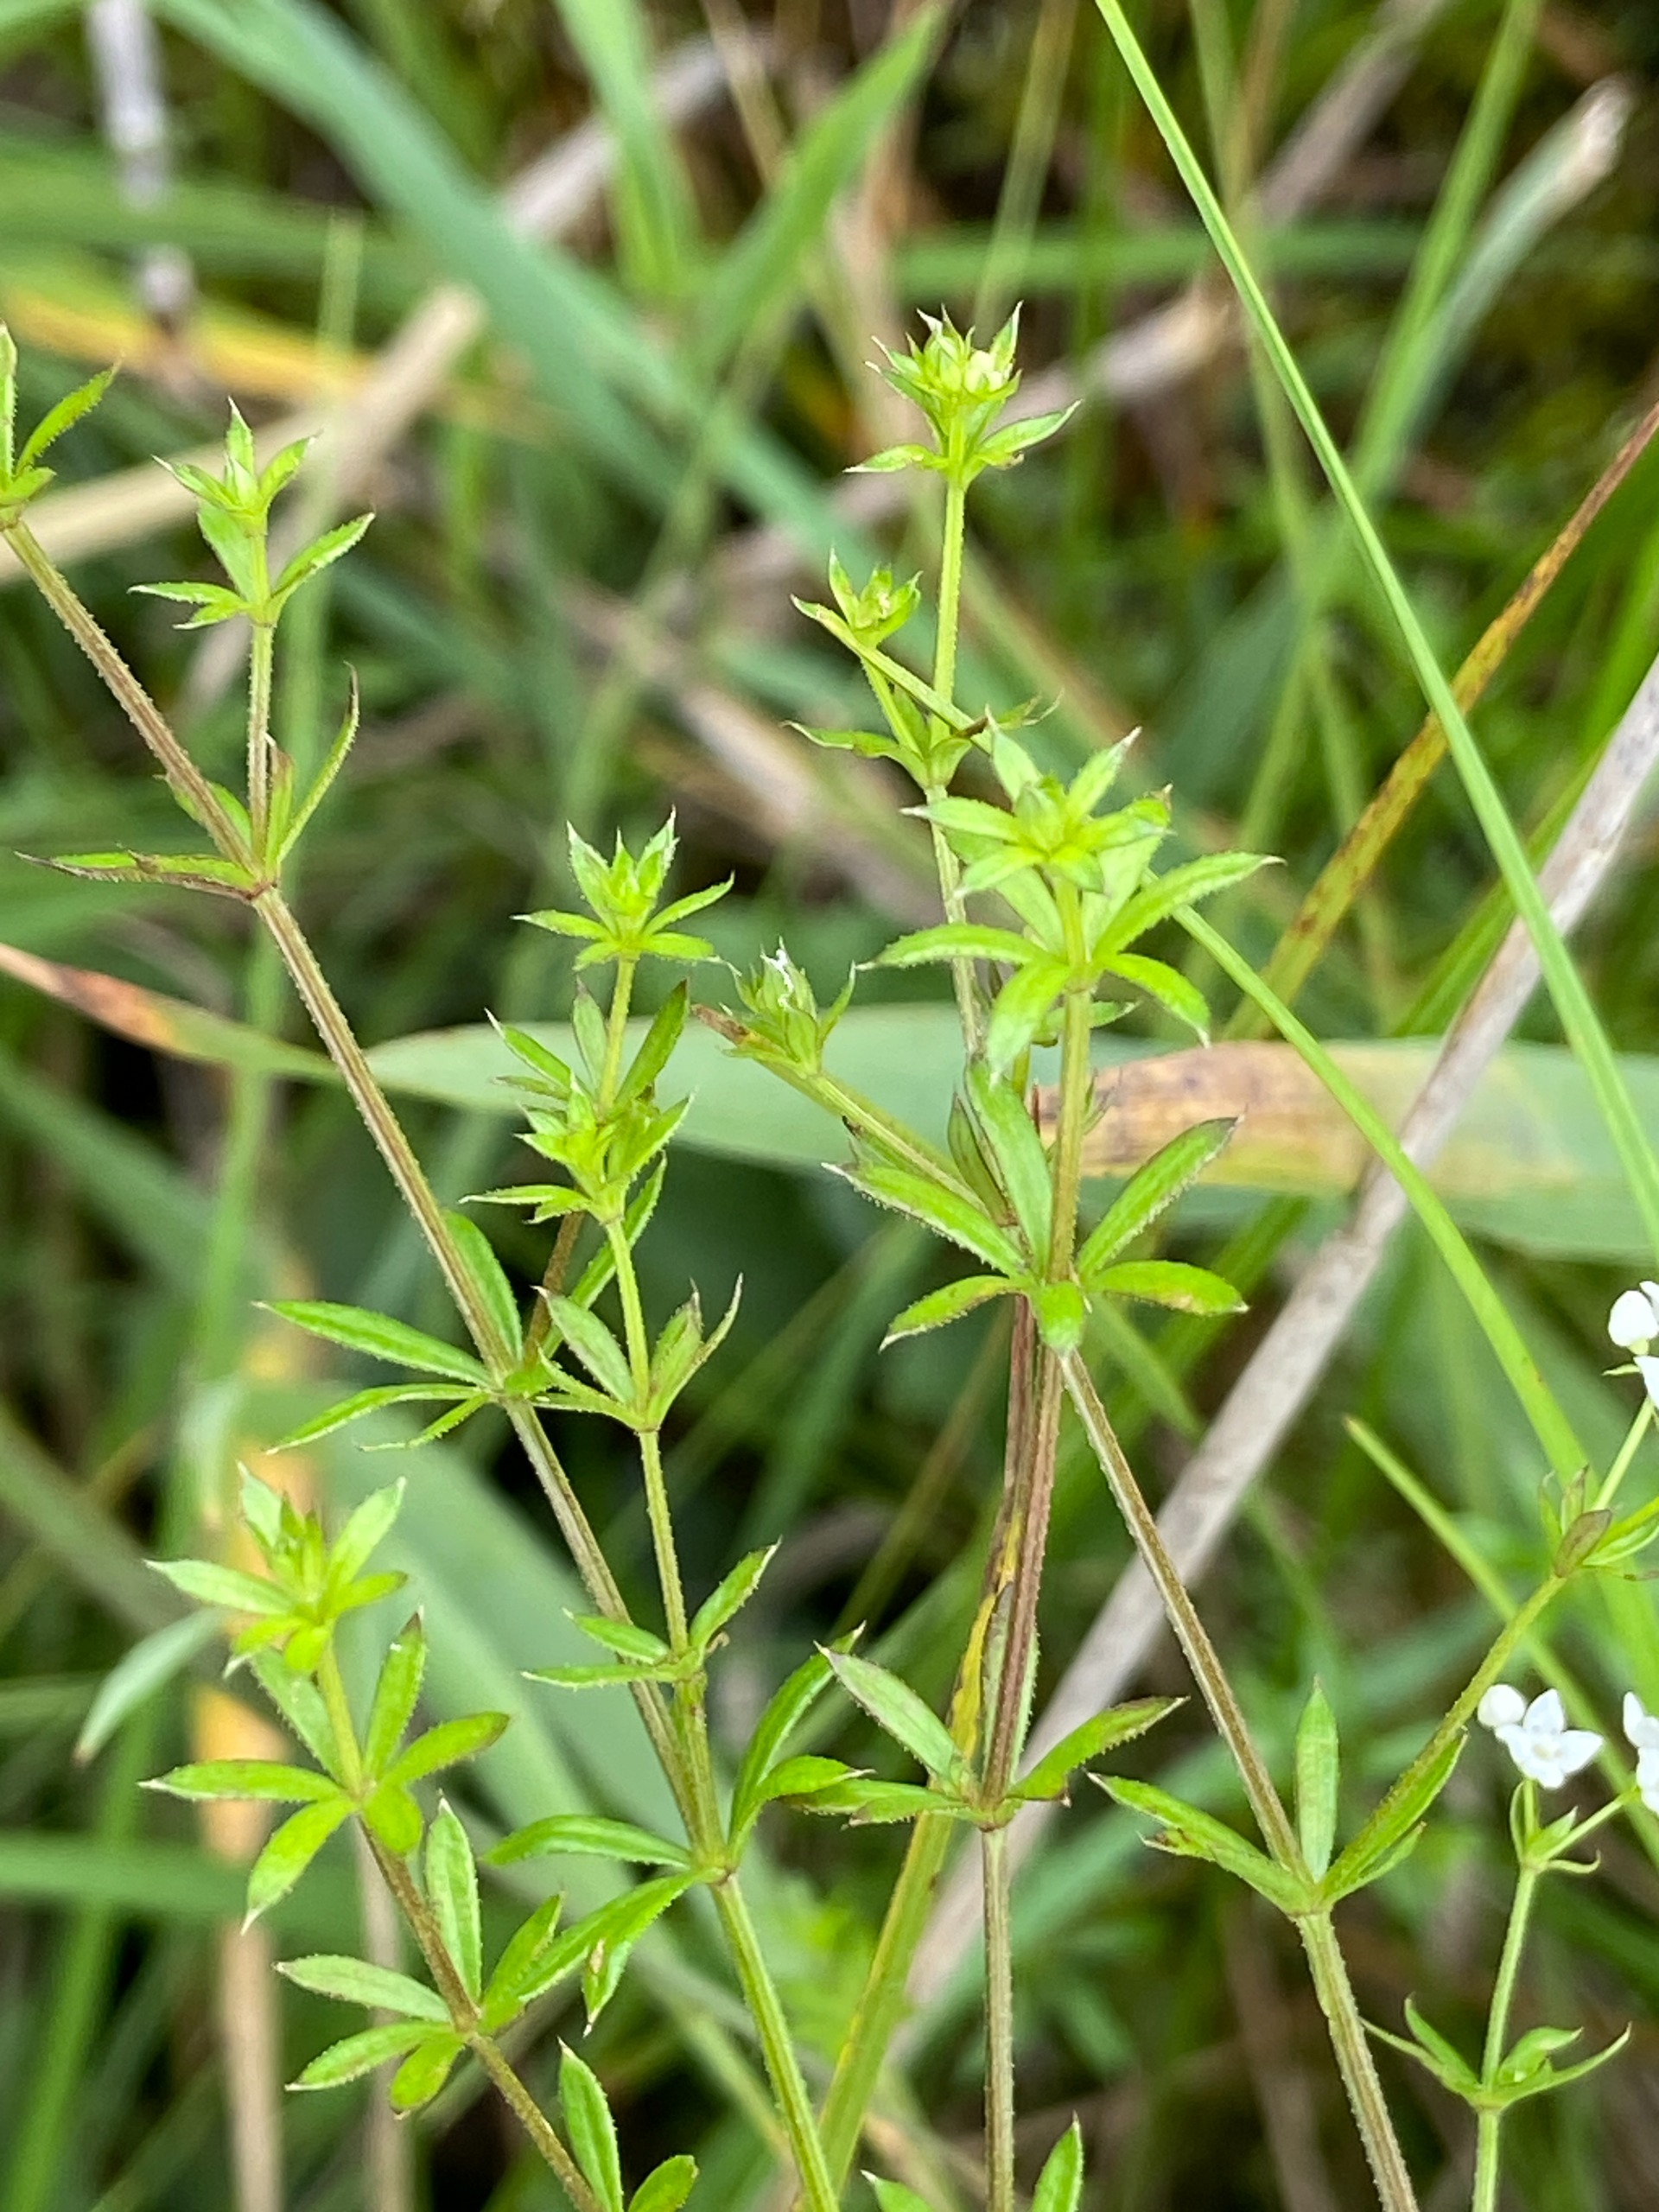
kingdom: Plantae
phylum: Tracheophyta
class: Magnoliopsida
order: Gentianales
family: Rubiaceae
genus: Galium
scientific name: Galium uliginosum
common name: Sump-snerre
